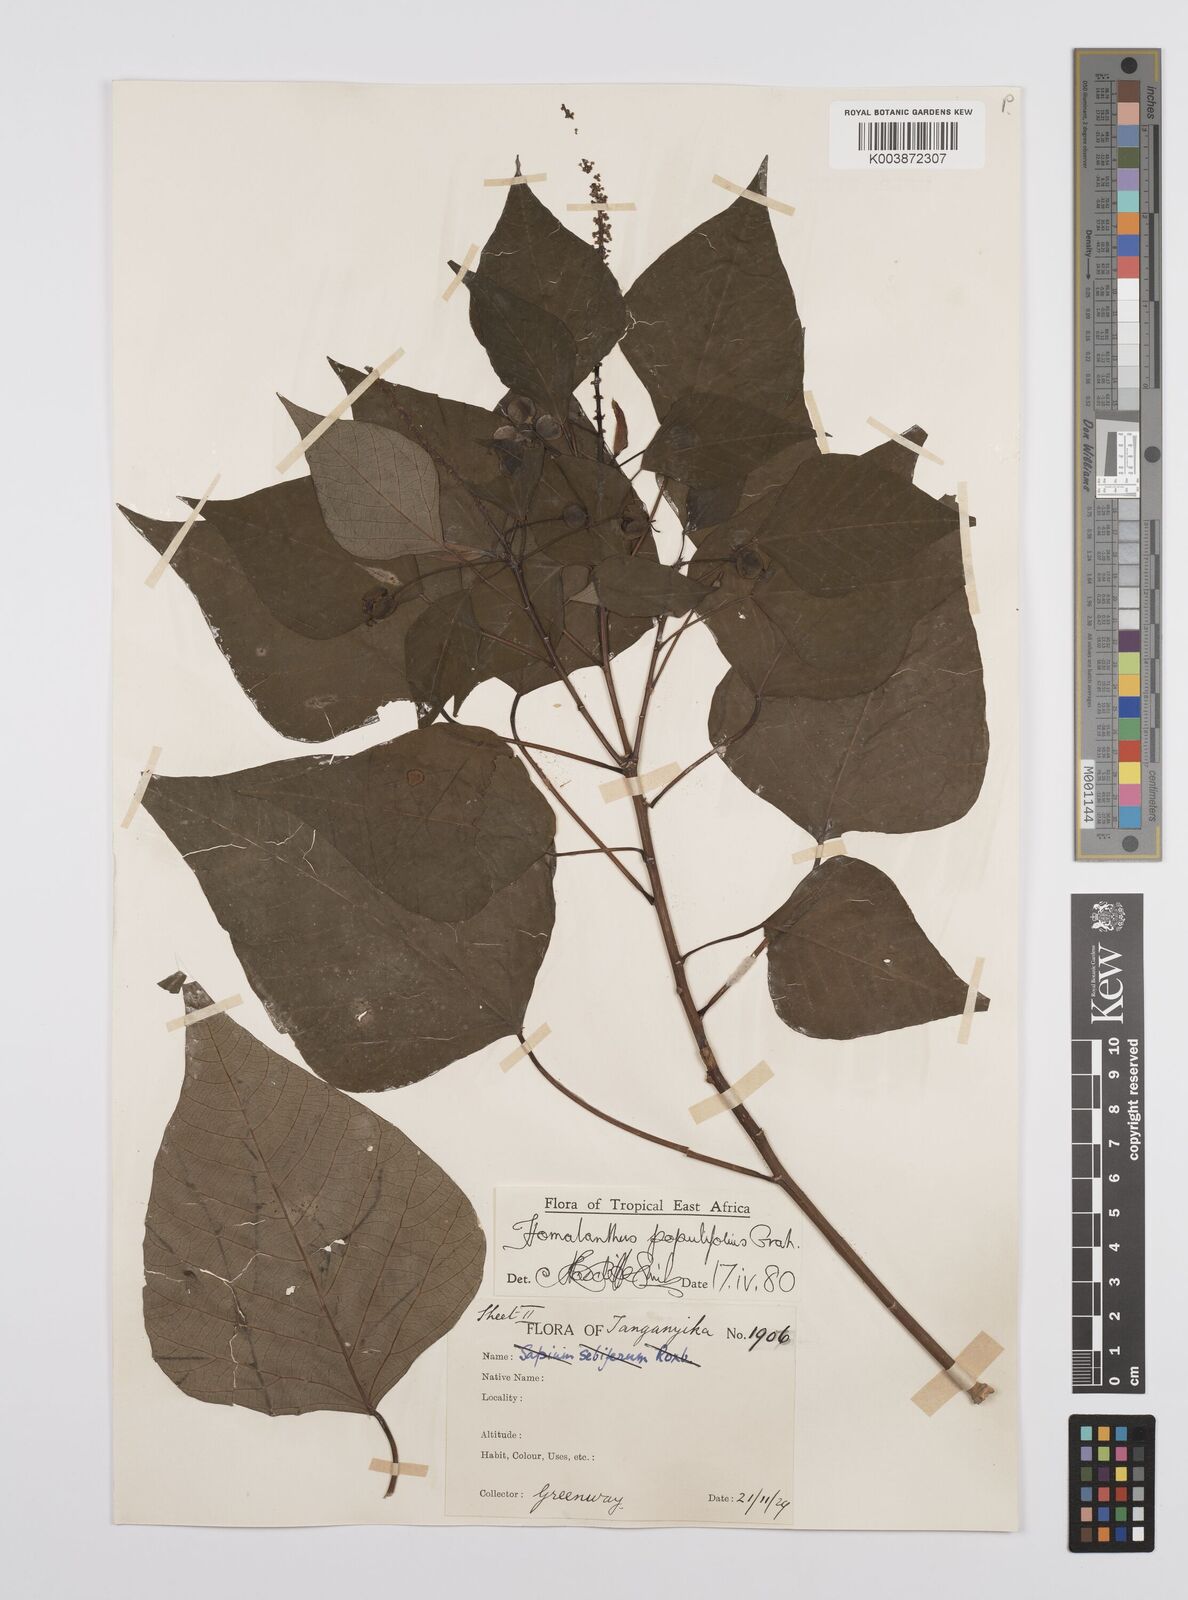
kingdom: Plantae
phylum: Tracheophyta
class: Magnoliopsida
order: Malpighiales
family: Euphorbiaceae
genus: Homalanthus
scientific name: Homalanthus populifolius
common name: Queensland poplar
